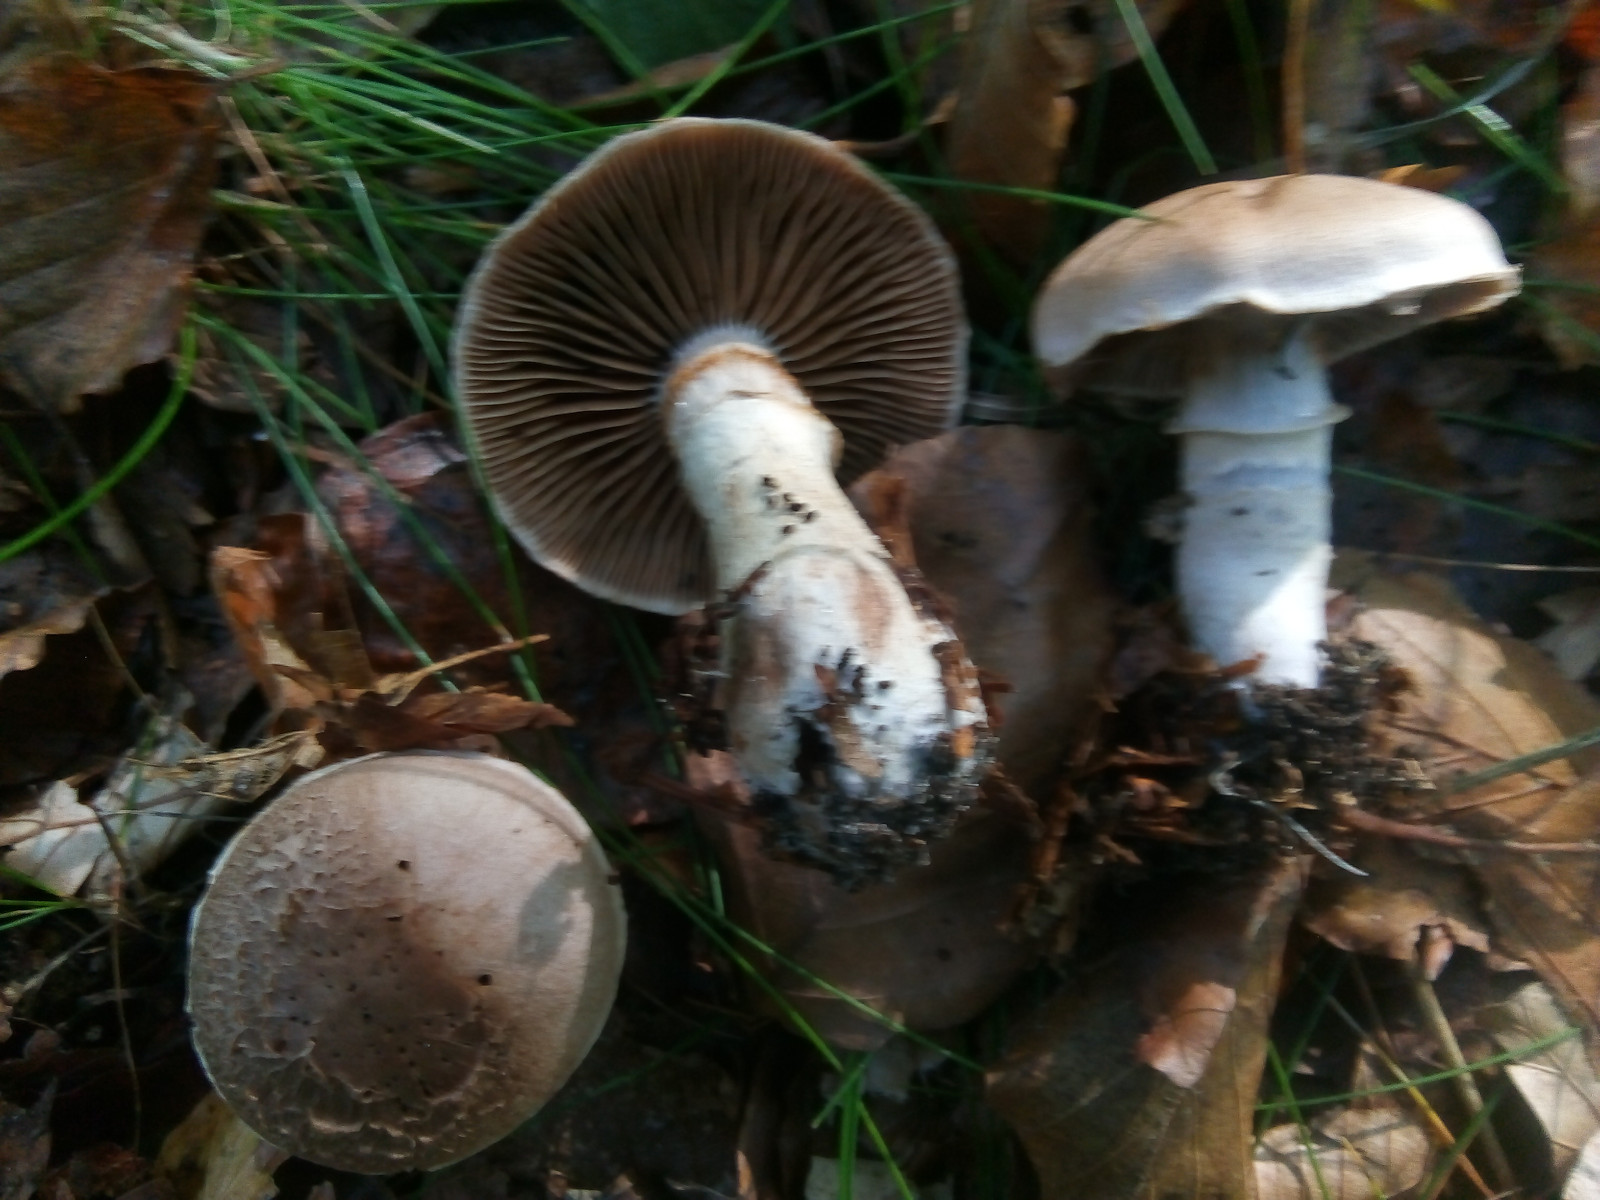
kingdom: Fungi
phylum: Basidiomycota
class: Agaricomycetes
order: Agaricales
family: Cortinariaceae
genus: Cortinarius
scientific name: Cortinarius torvus
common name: champignonagtig slørhat
